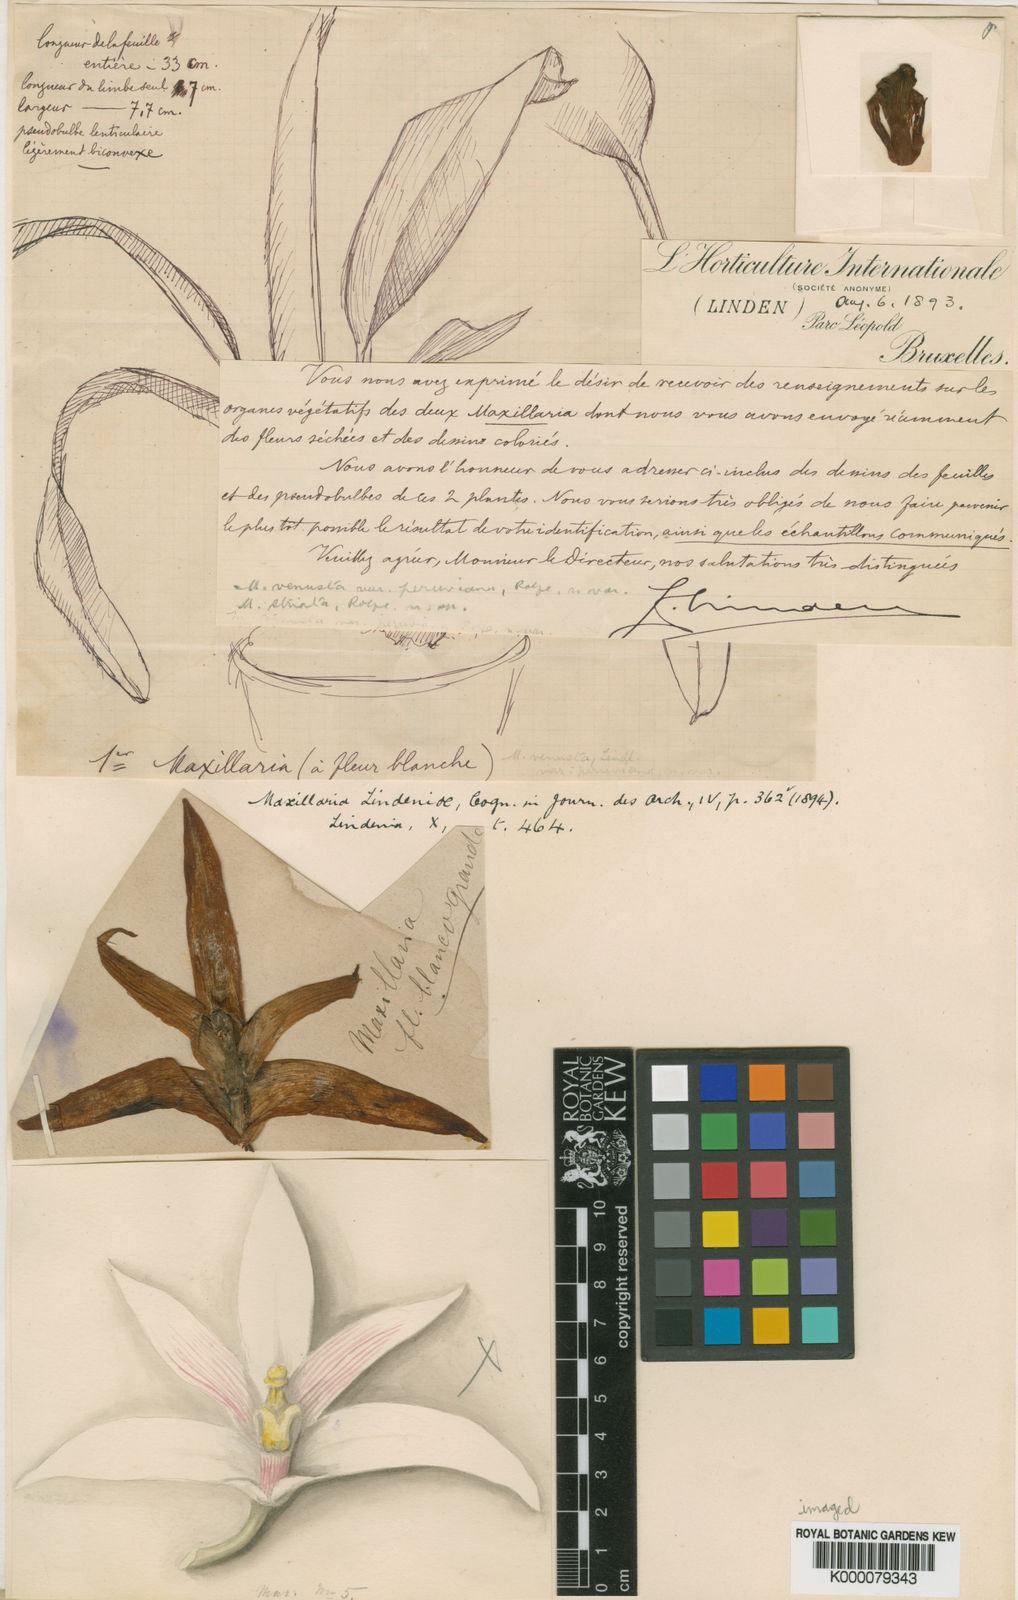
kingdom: Plantae
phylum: Tracheophyta
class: Liliopsida
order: Asparagales
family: Orchidaceae
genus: Maxillaria
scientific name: Maxillaria lindeniae
